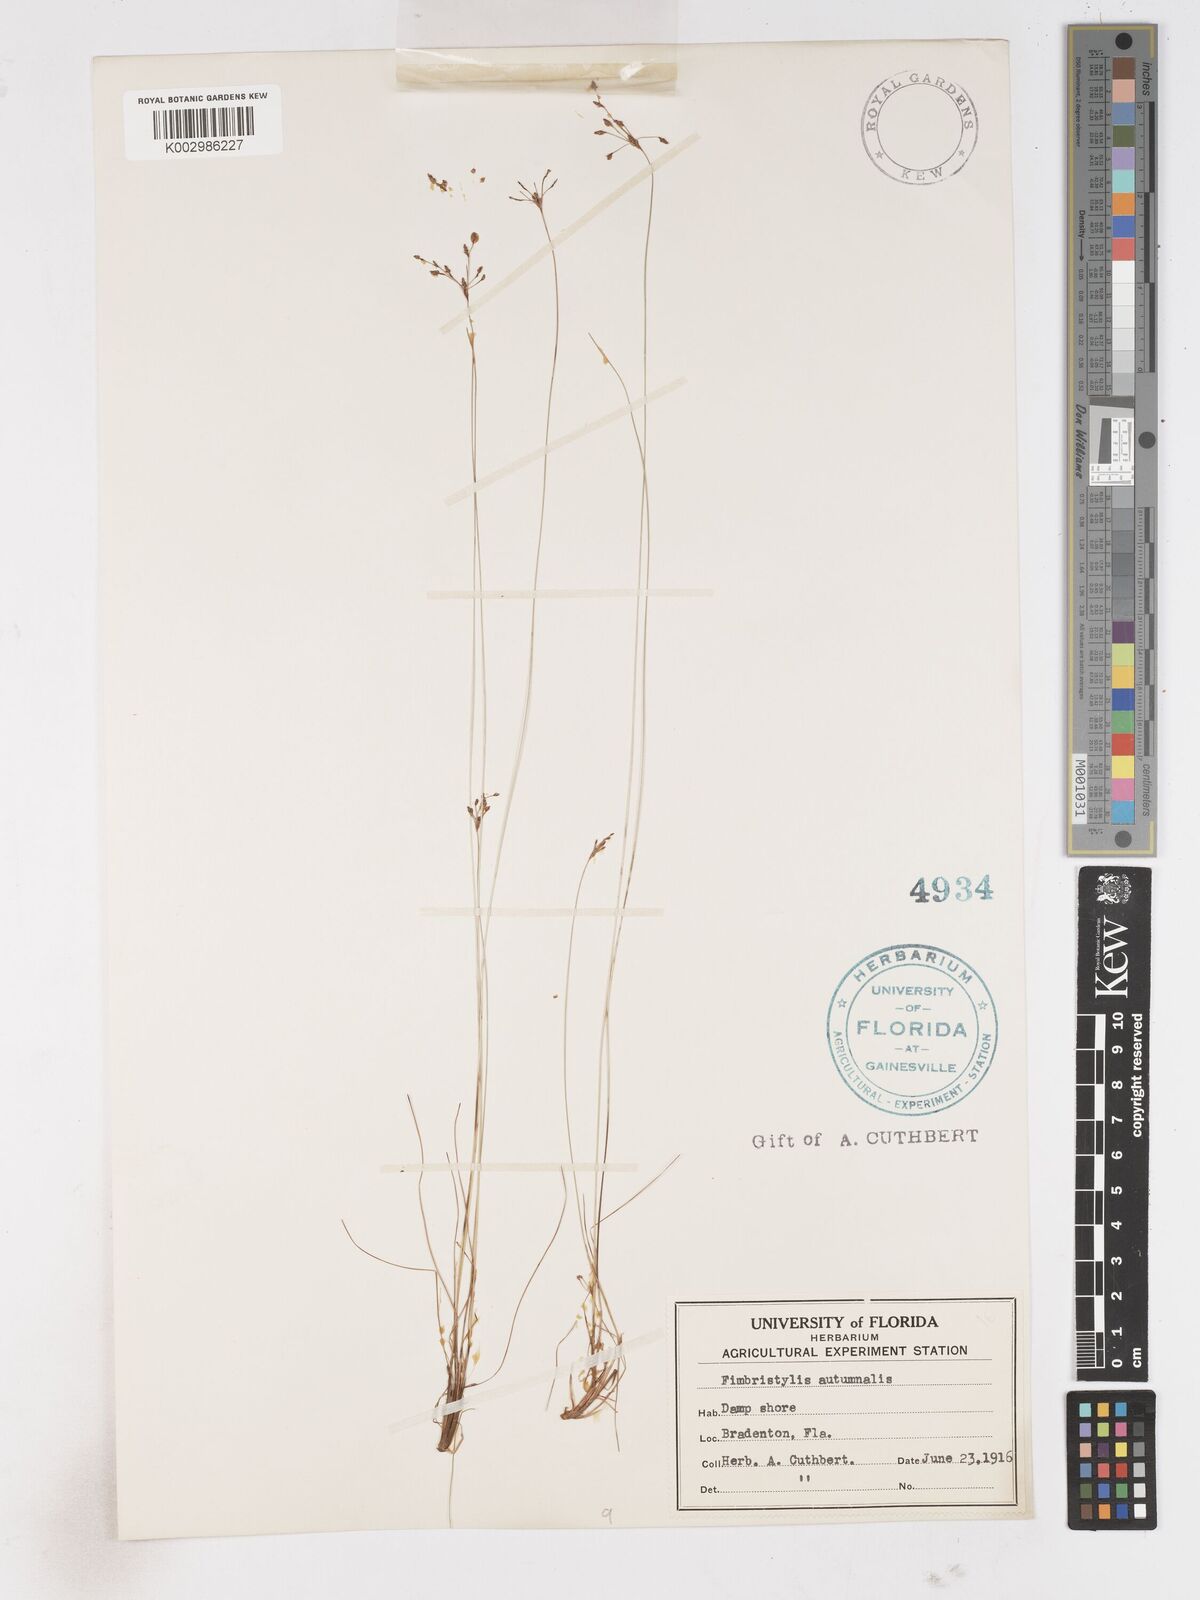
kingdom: Plantae
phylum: Tracheophyta
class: Liliopsida
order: Poales
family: Cyperaceae
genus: Fimbristylis
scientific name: Fimbristylis autumnalis
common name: Slender fimbristylis
